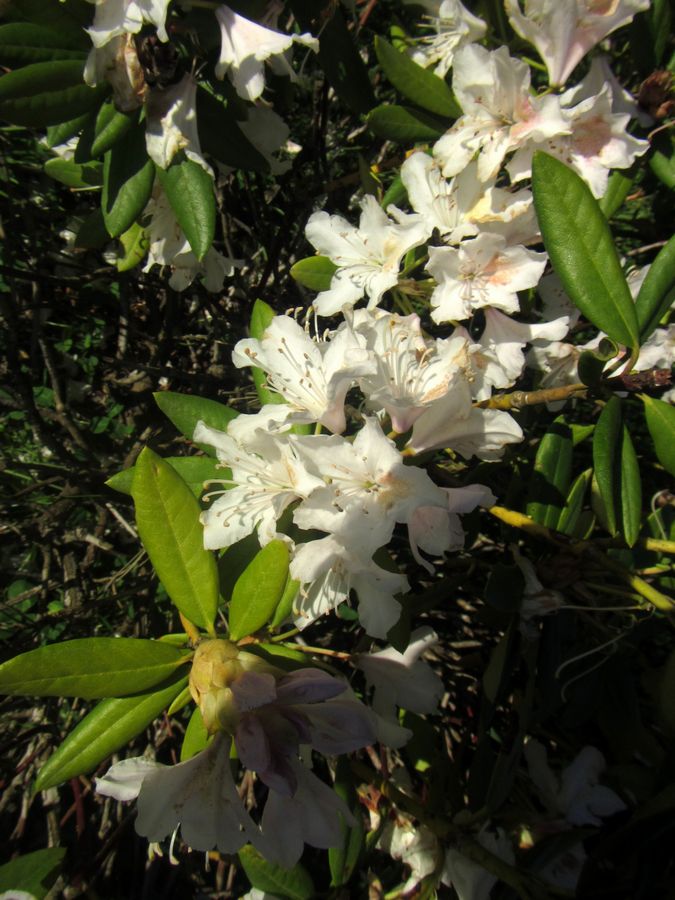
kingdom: Plantae
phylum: Tracheophyta
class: Magnoliopsida
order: Ericales
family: Ericaceae
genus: Rhododendron
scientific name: Rhododendron caucasicum
